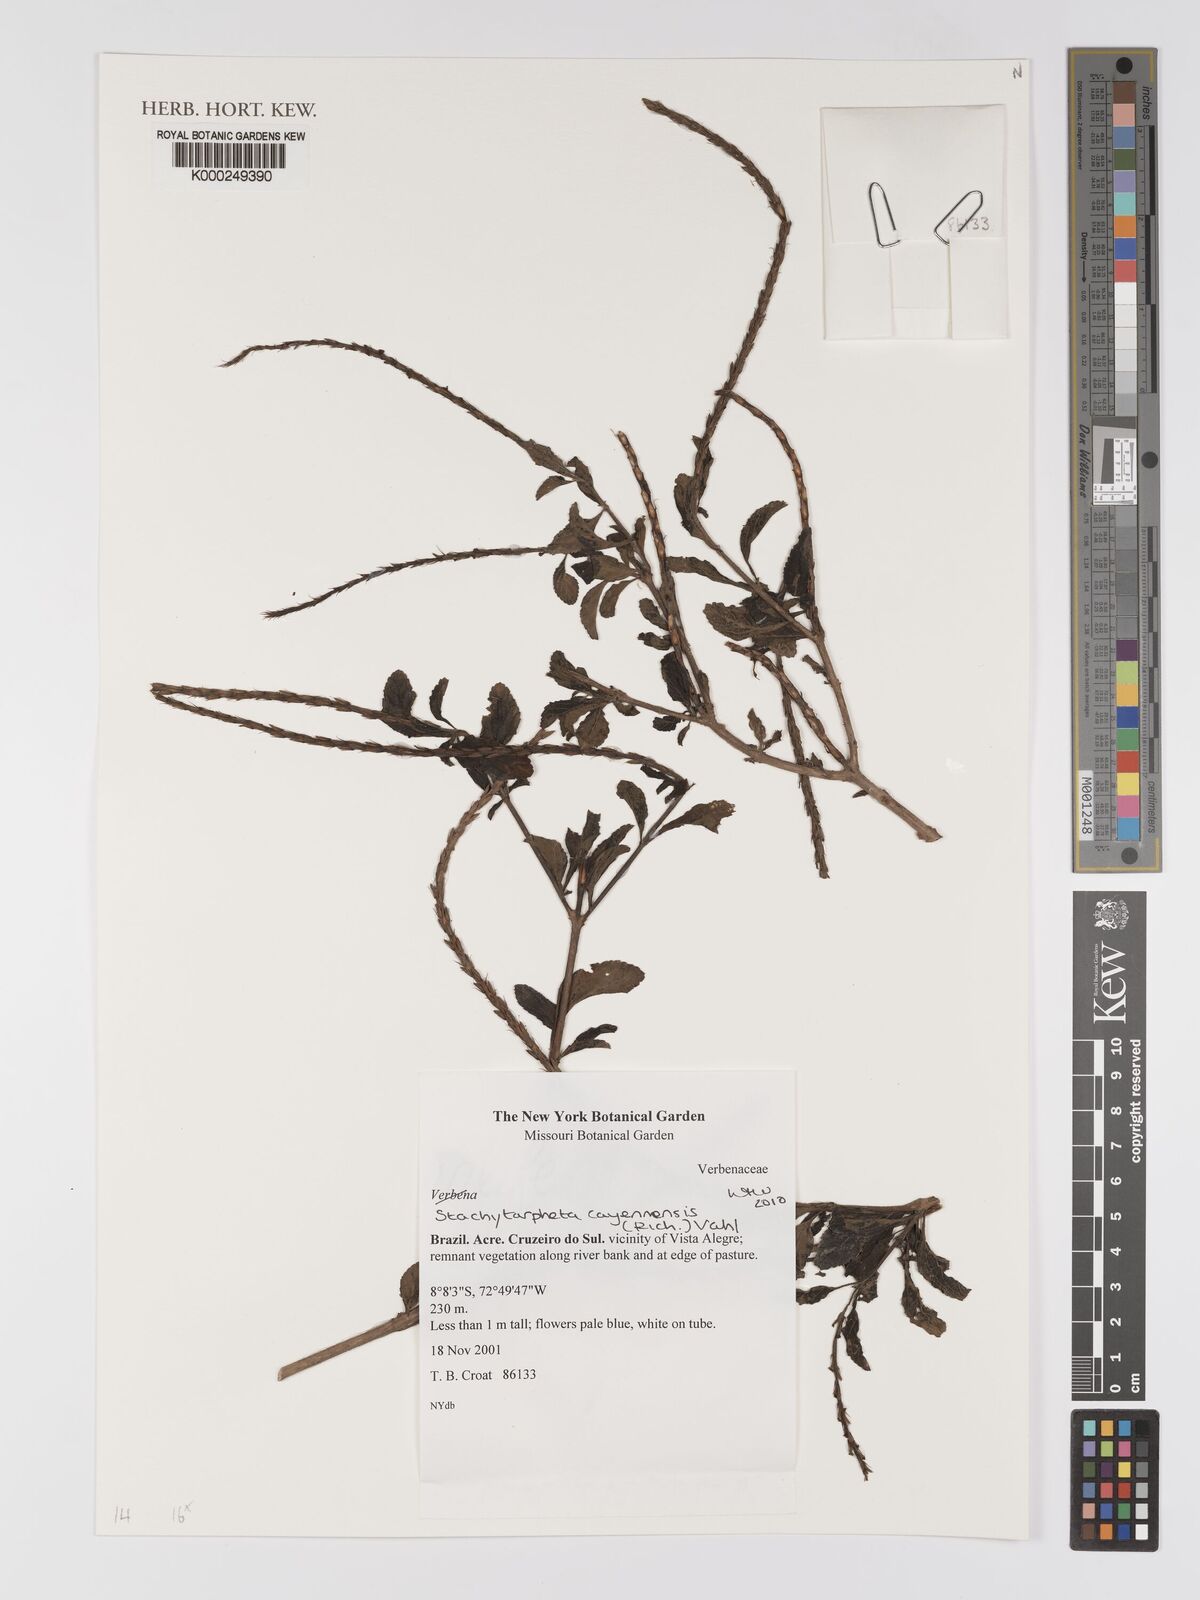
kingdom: Plantae
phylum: Tracheophyta
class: Magnoliopsida
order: Lamiales
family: Verbenaceae
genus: Stachytarpheta
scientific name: Stachytarpheta cayennensis
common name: Cayenne porterweed
